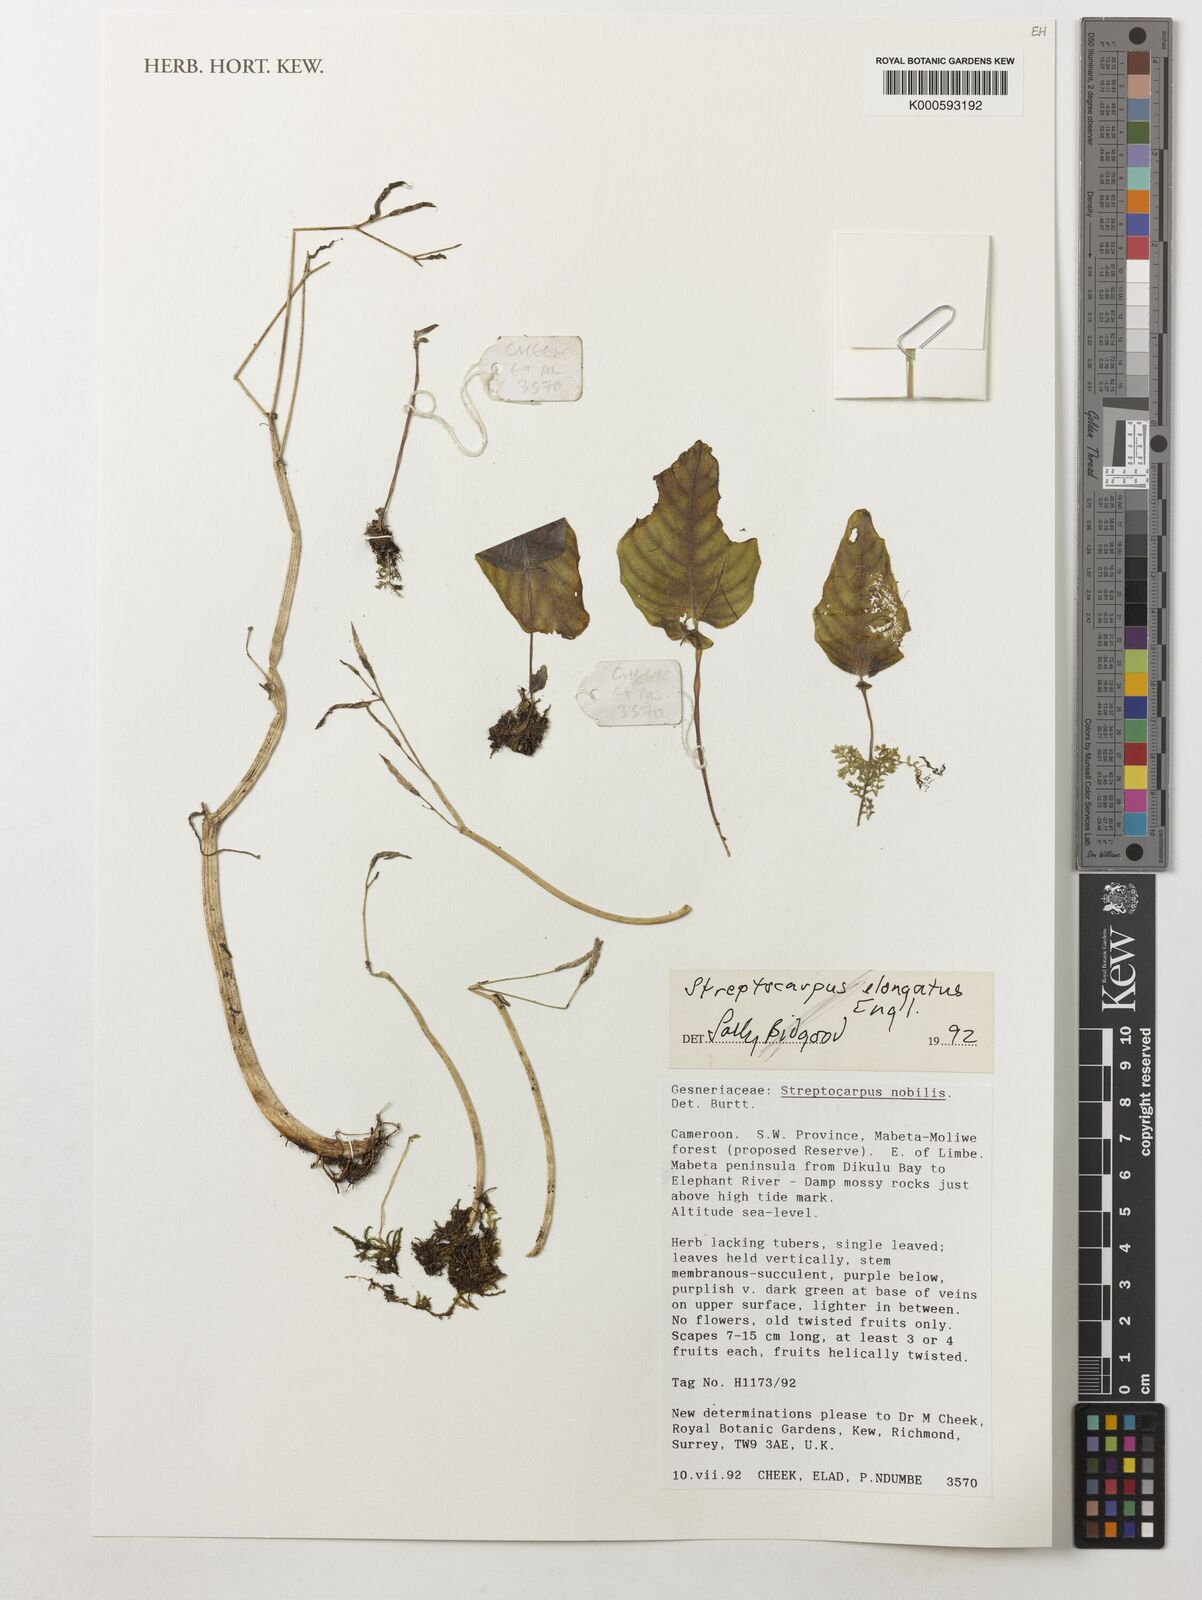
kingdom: Plantae
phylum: Tracheophyta
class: Magnoliopsida
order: Lamiales
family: Gesneriaceae
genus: Streptocarpus
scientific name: Streptocarpus elongatus
